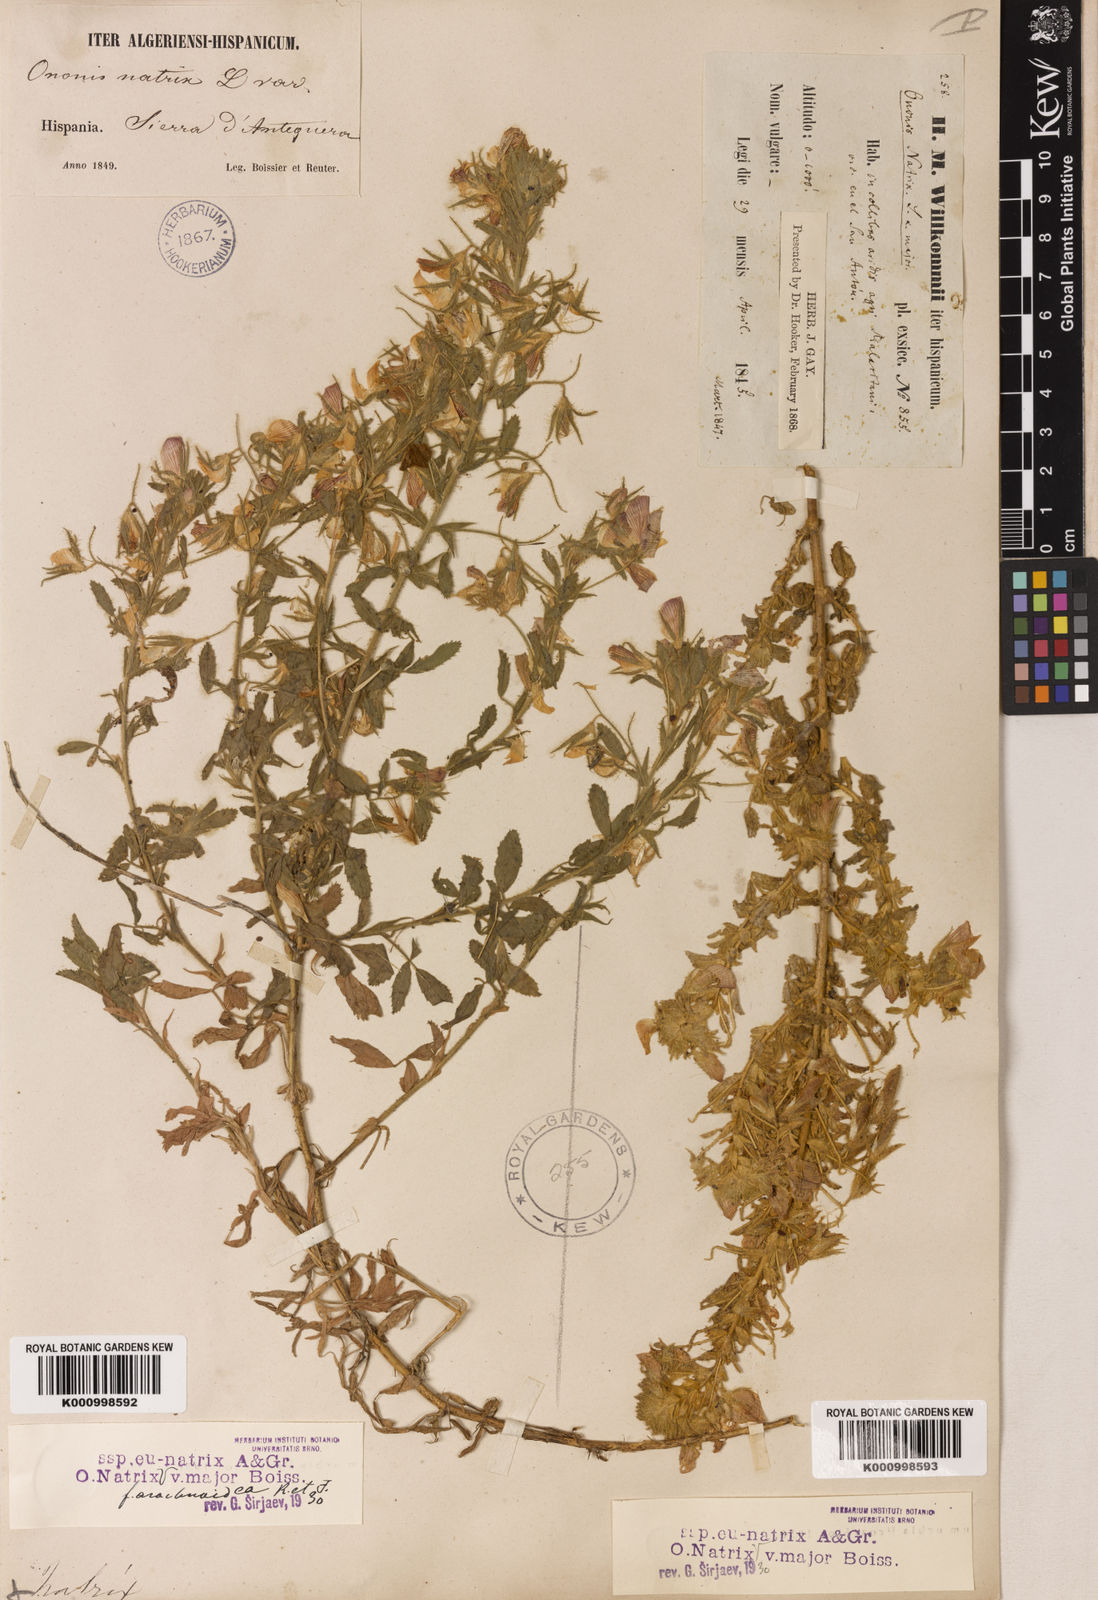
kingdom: Plantae
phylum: Tracheophyta
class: Magnoliopsida
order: Fabales
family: Fabaceae
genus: Ononis
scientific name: Ononis natrix
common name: Yellow restharrow
